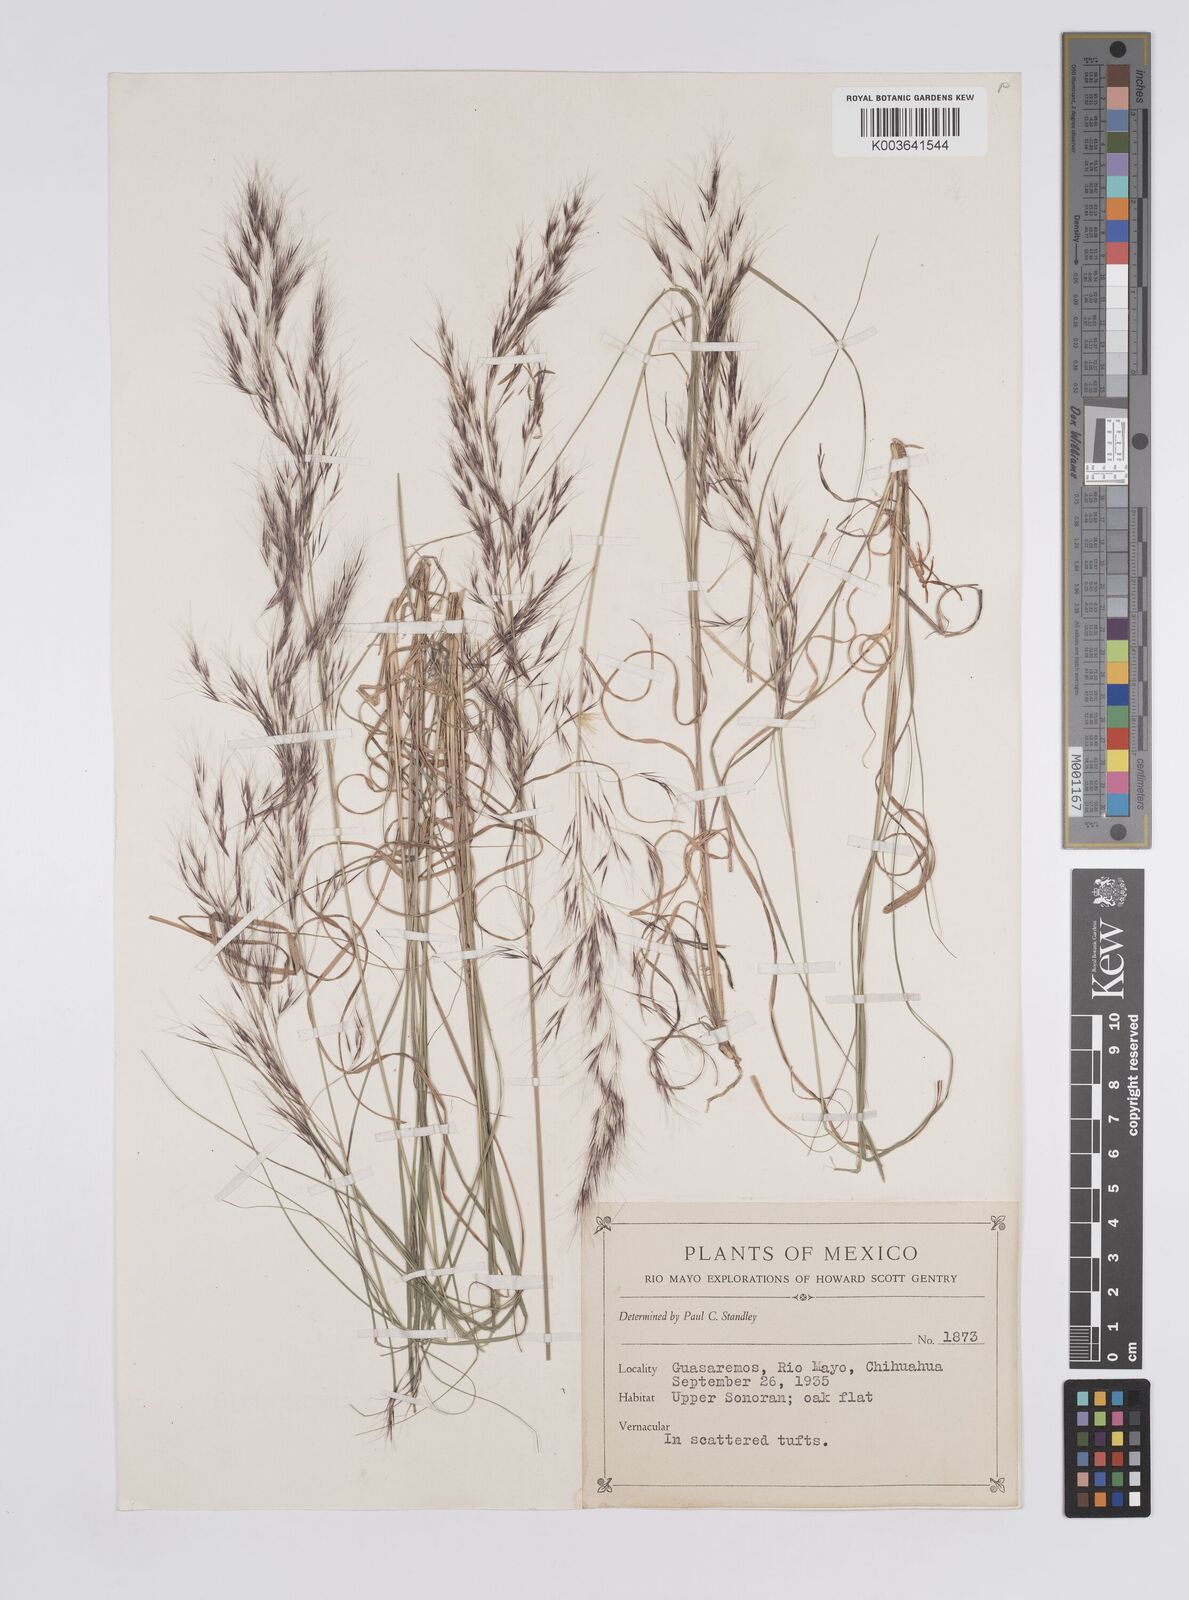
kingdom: Plantae
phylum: Tracheophyta
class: Liliopsida
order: Poales
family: Poaceae
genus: Aristida
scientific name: Aristida
